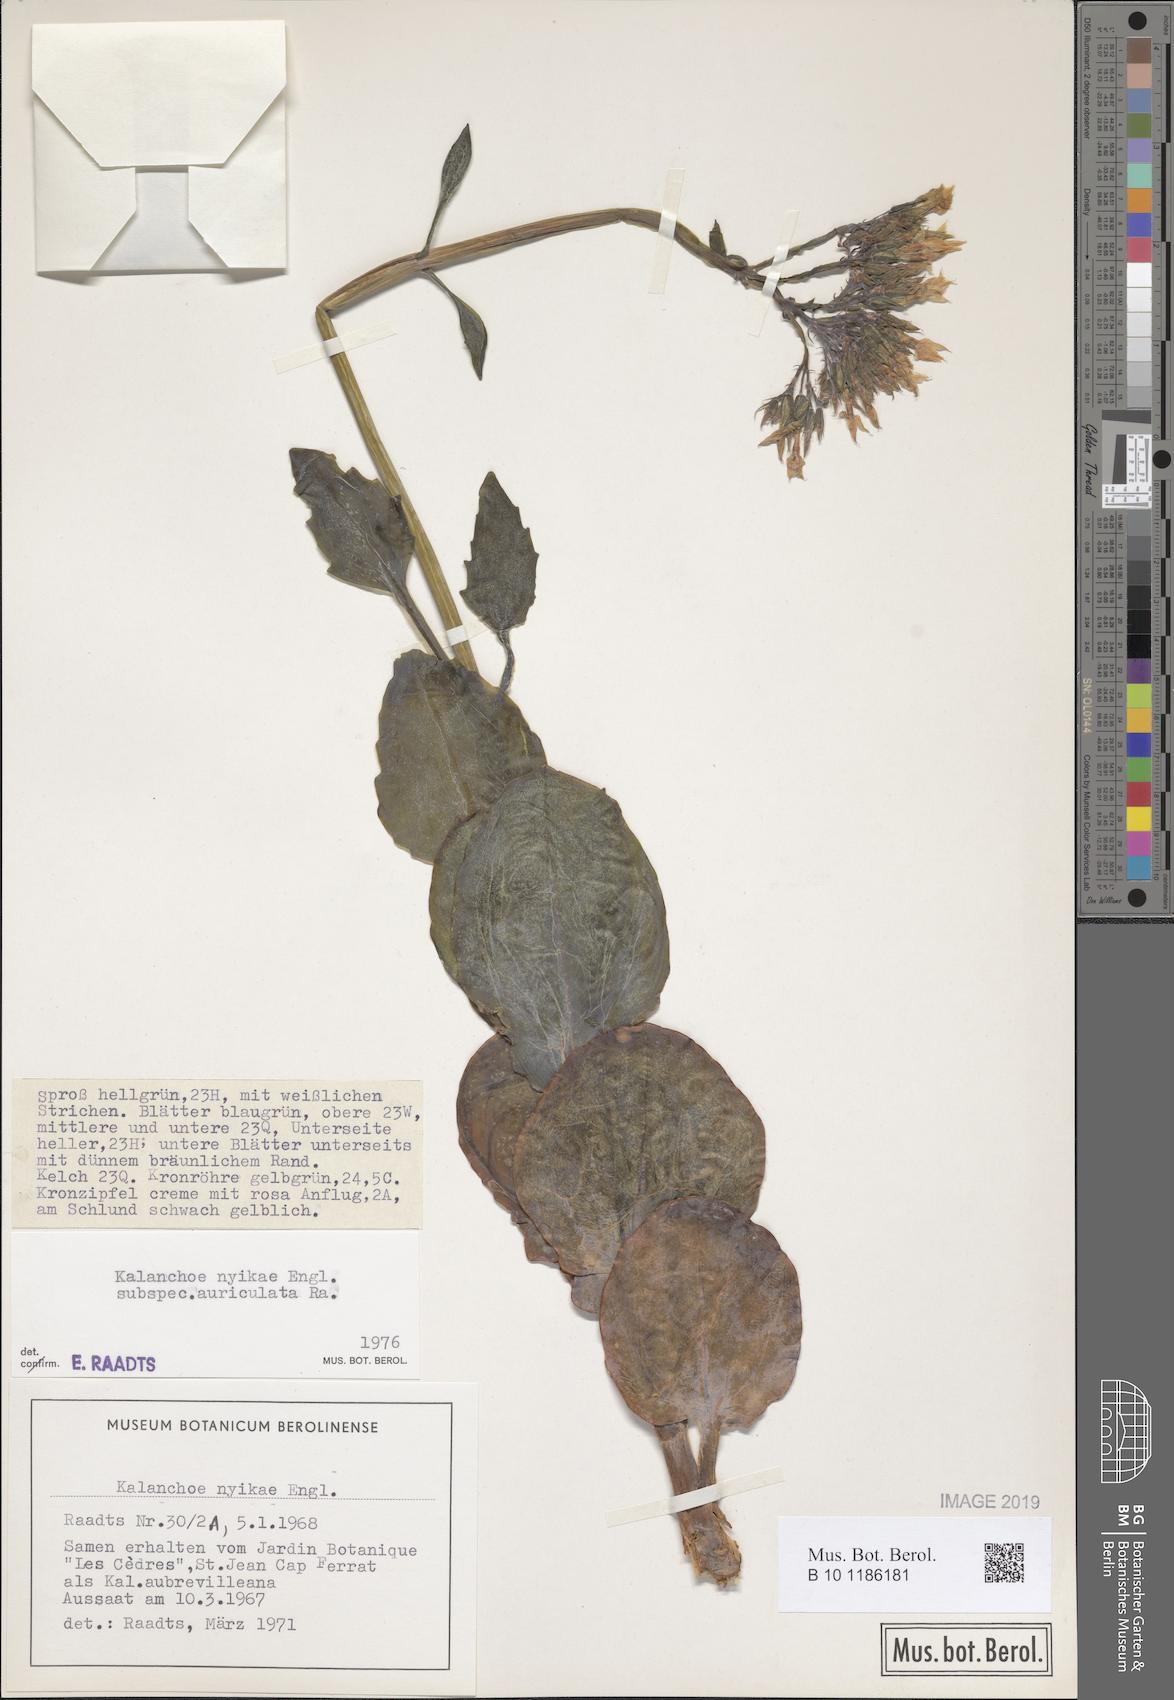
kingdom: Plantae
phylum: Tracheophyta
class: Magnoliopsida
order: Saxifragales
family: Crassulaceae
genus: Kalanchoe
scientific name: Kalanchoe auriculata
